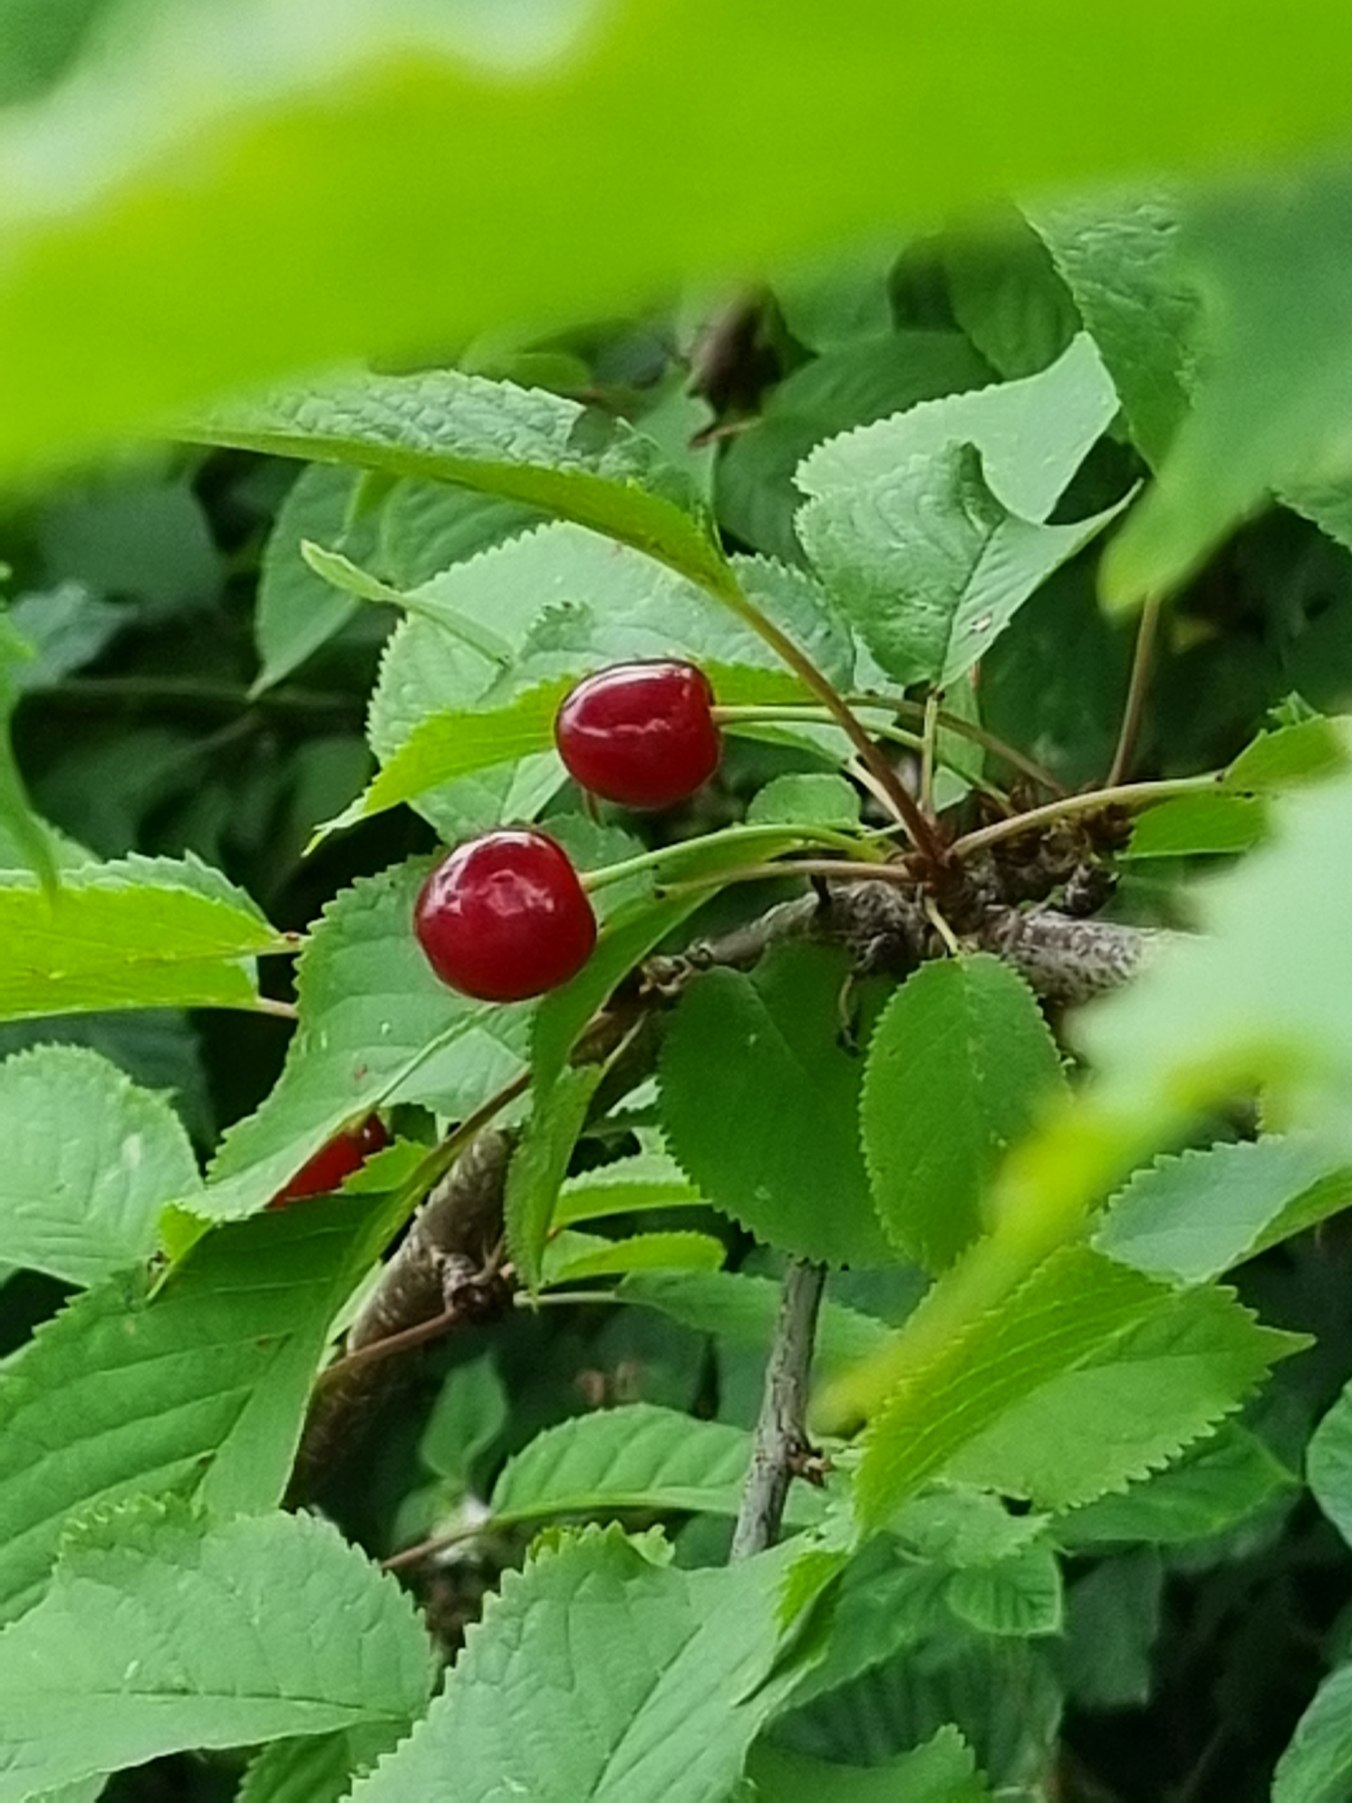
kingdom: Plantae
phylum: Tracheophyta
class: Magnoliopsida
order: Rosales
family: Rosaceae
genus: Prunus
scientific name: Prunus avium
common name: Fugle-kirsebær
